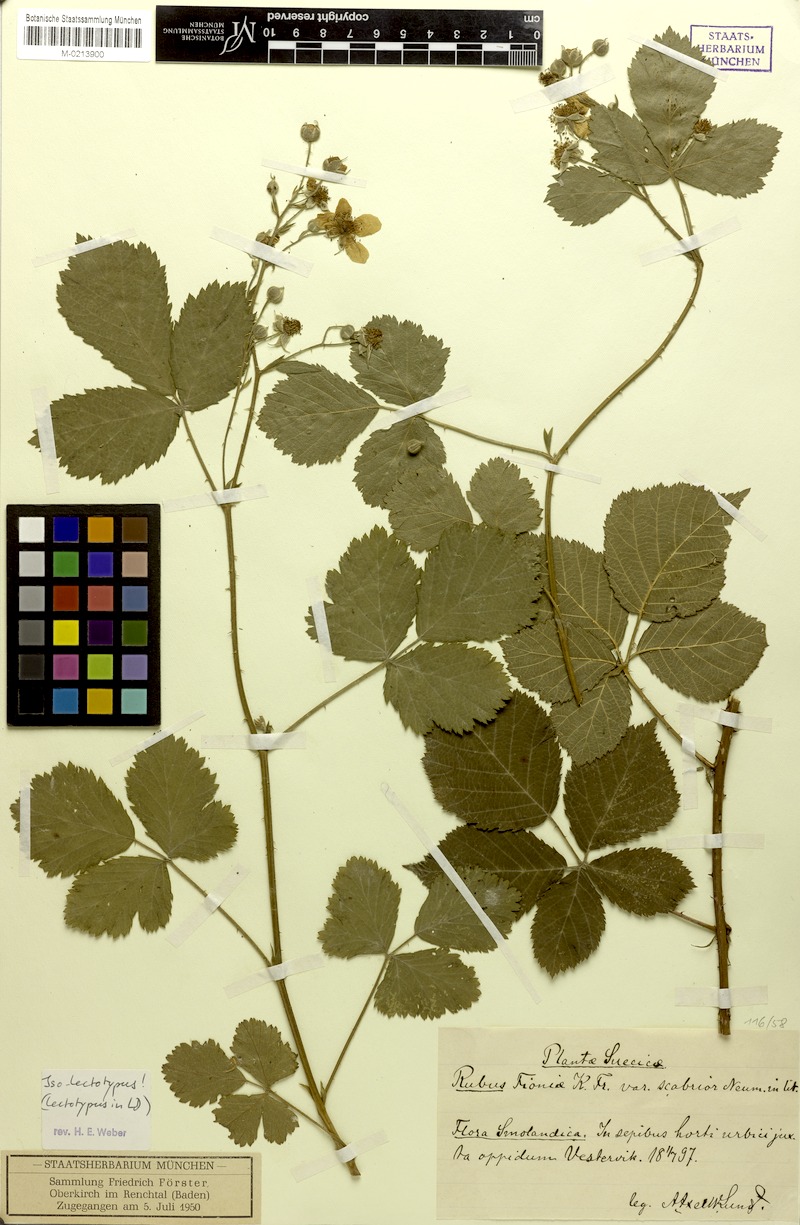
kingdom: Plantae
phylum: Tracheophyta
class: Magnoliopsida
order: Rosales
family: Rosaceae
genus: Rubus
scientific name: Rubus fioniae
